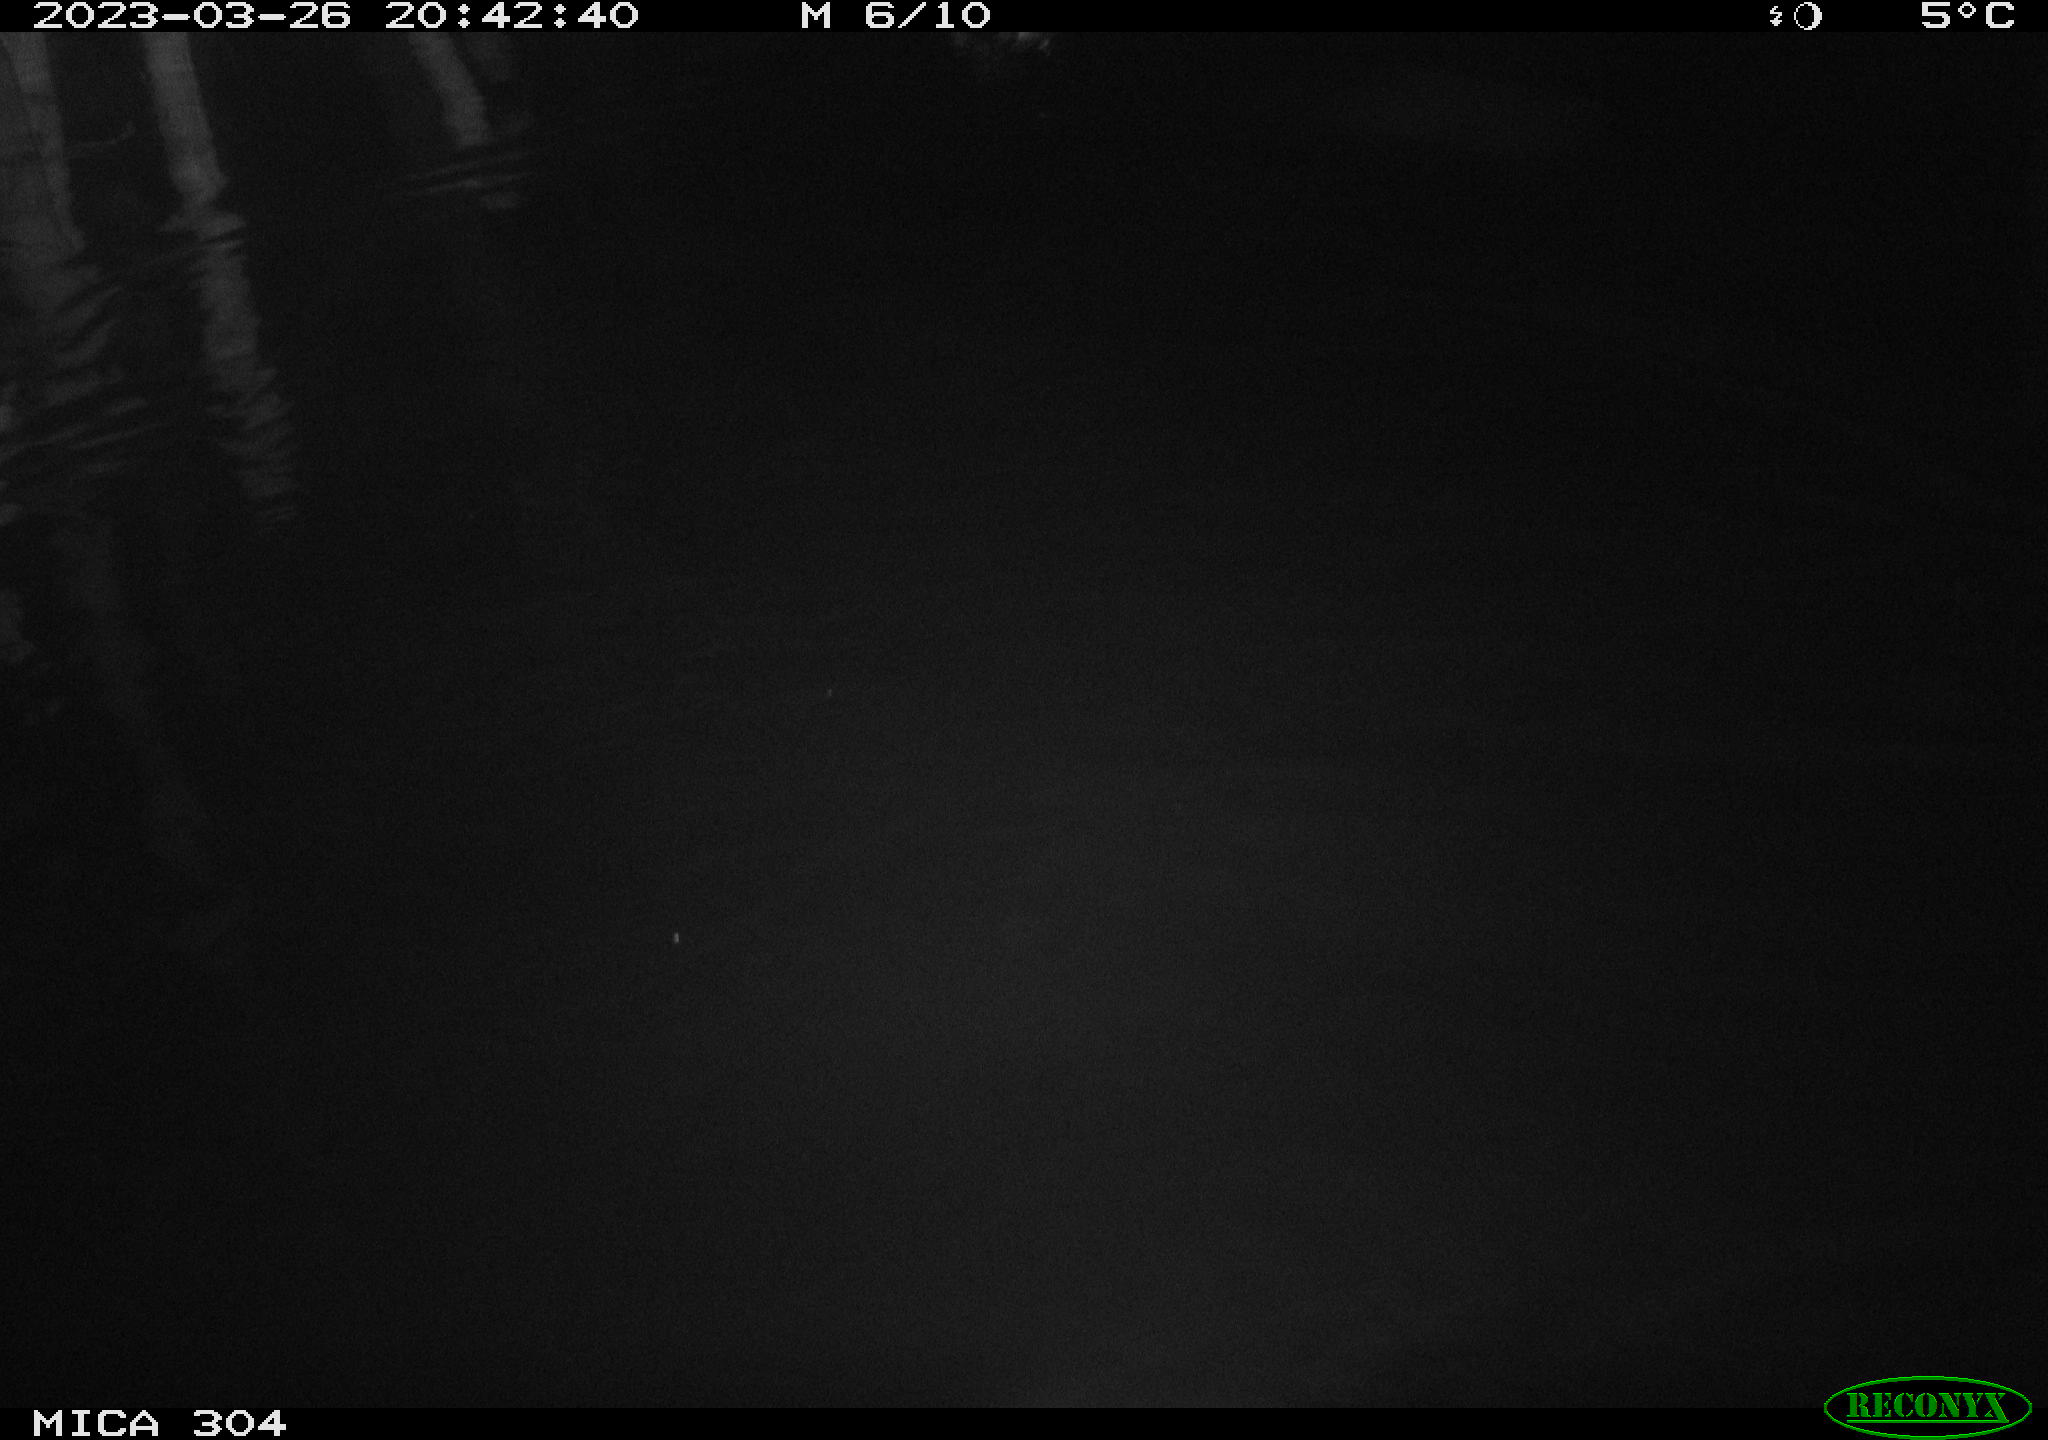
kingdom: Animalia
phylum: Chordata
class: Aves
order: Anseriformes
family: Anatidae
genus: Anas
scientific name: Anas
